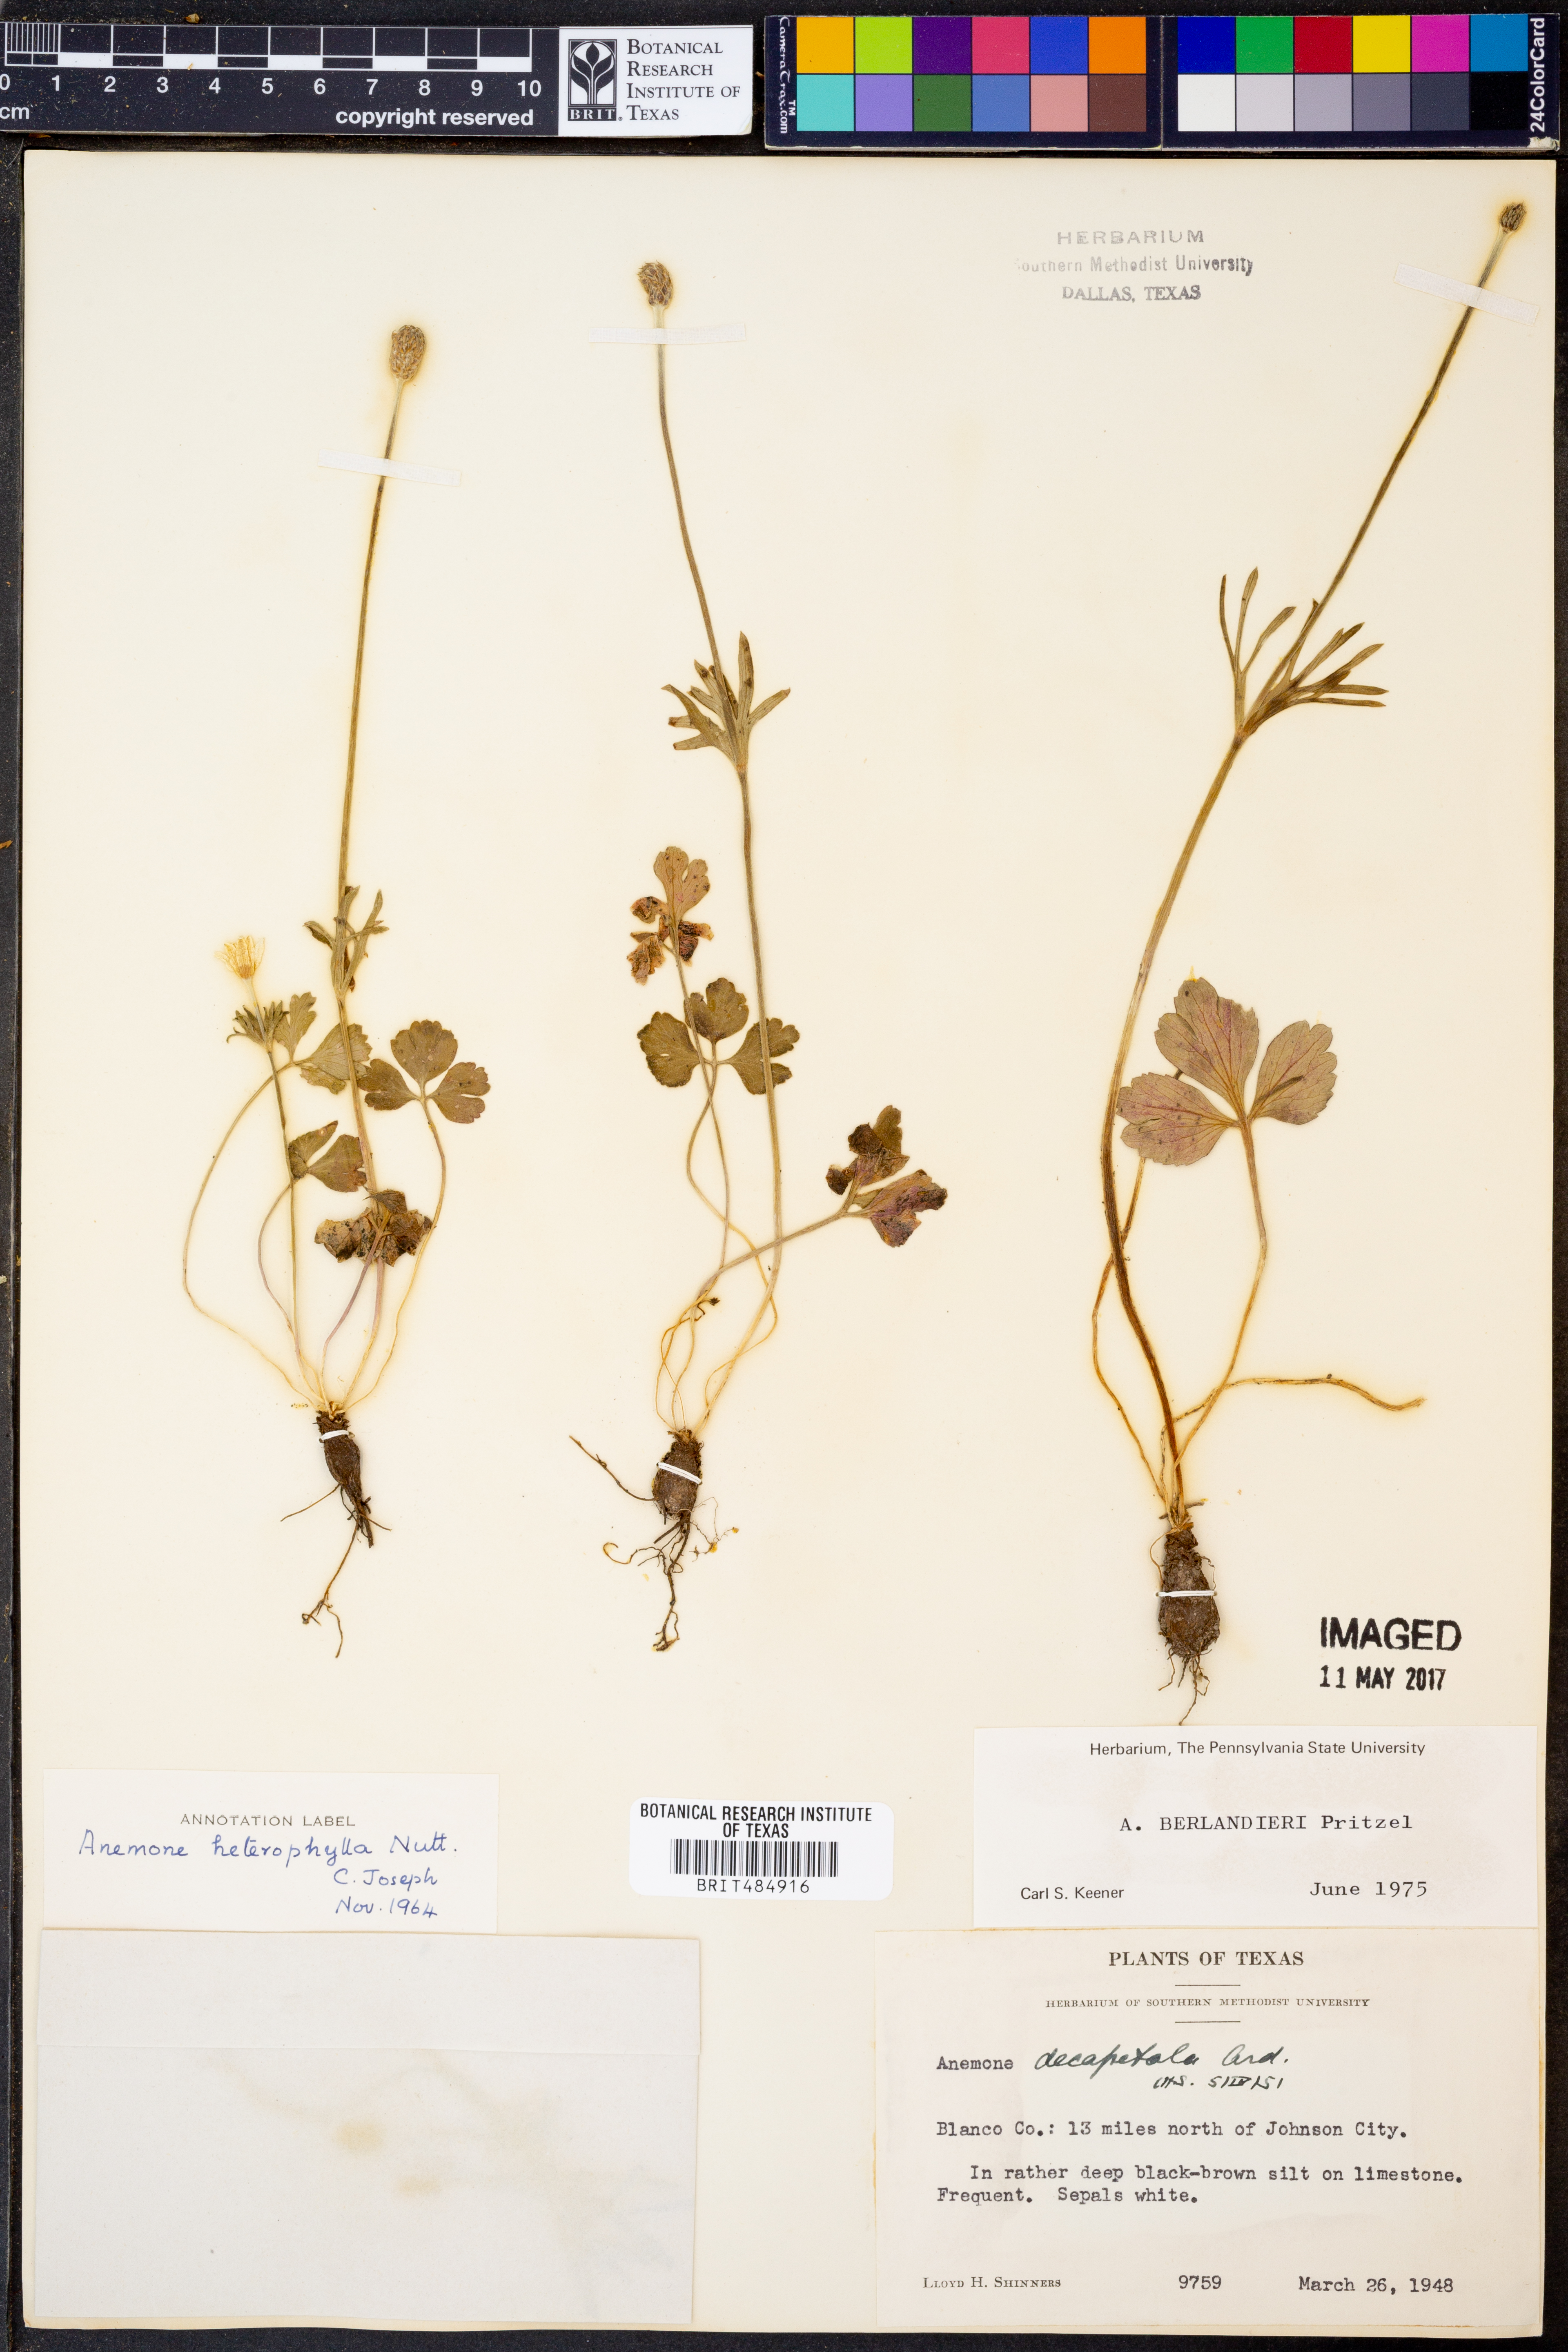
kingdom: Plantae
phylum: Tracheophyta
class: Magnoliopsida
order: Ranunculales
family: Ranunculaceae
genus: Anemone
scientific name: Anemone decapetala
